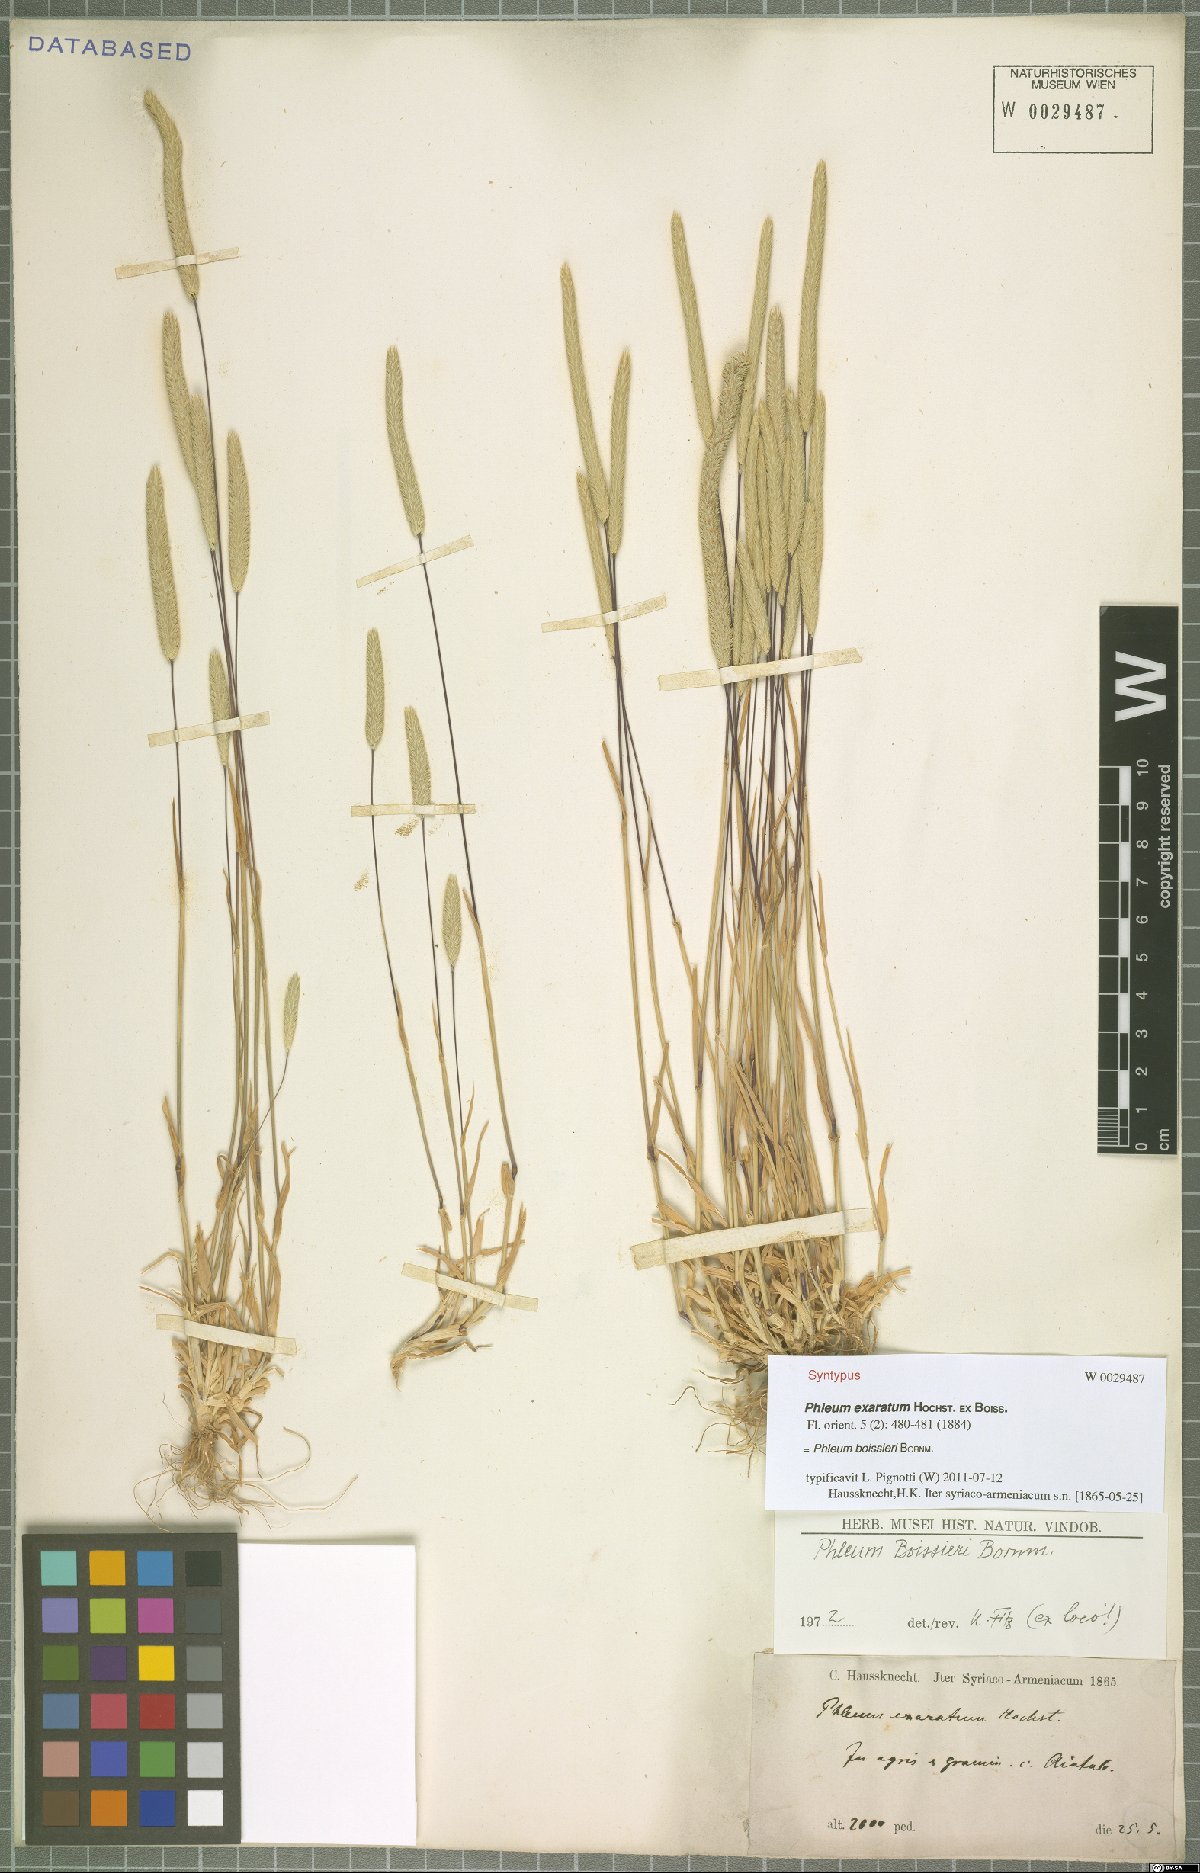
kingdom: Plantae
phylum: Tracheophyta
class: Liliopsida
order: Poales
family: Poaceae
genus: Phleum
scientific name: Phleum boissieri
